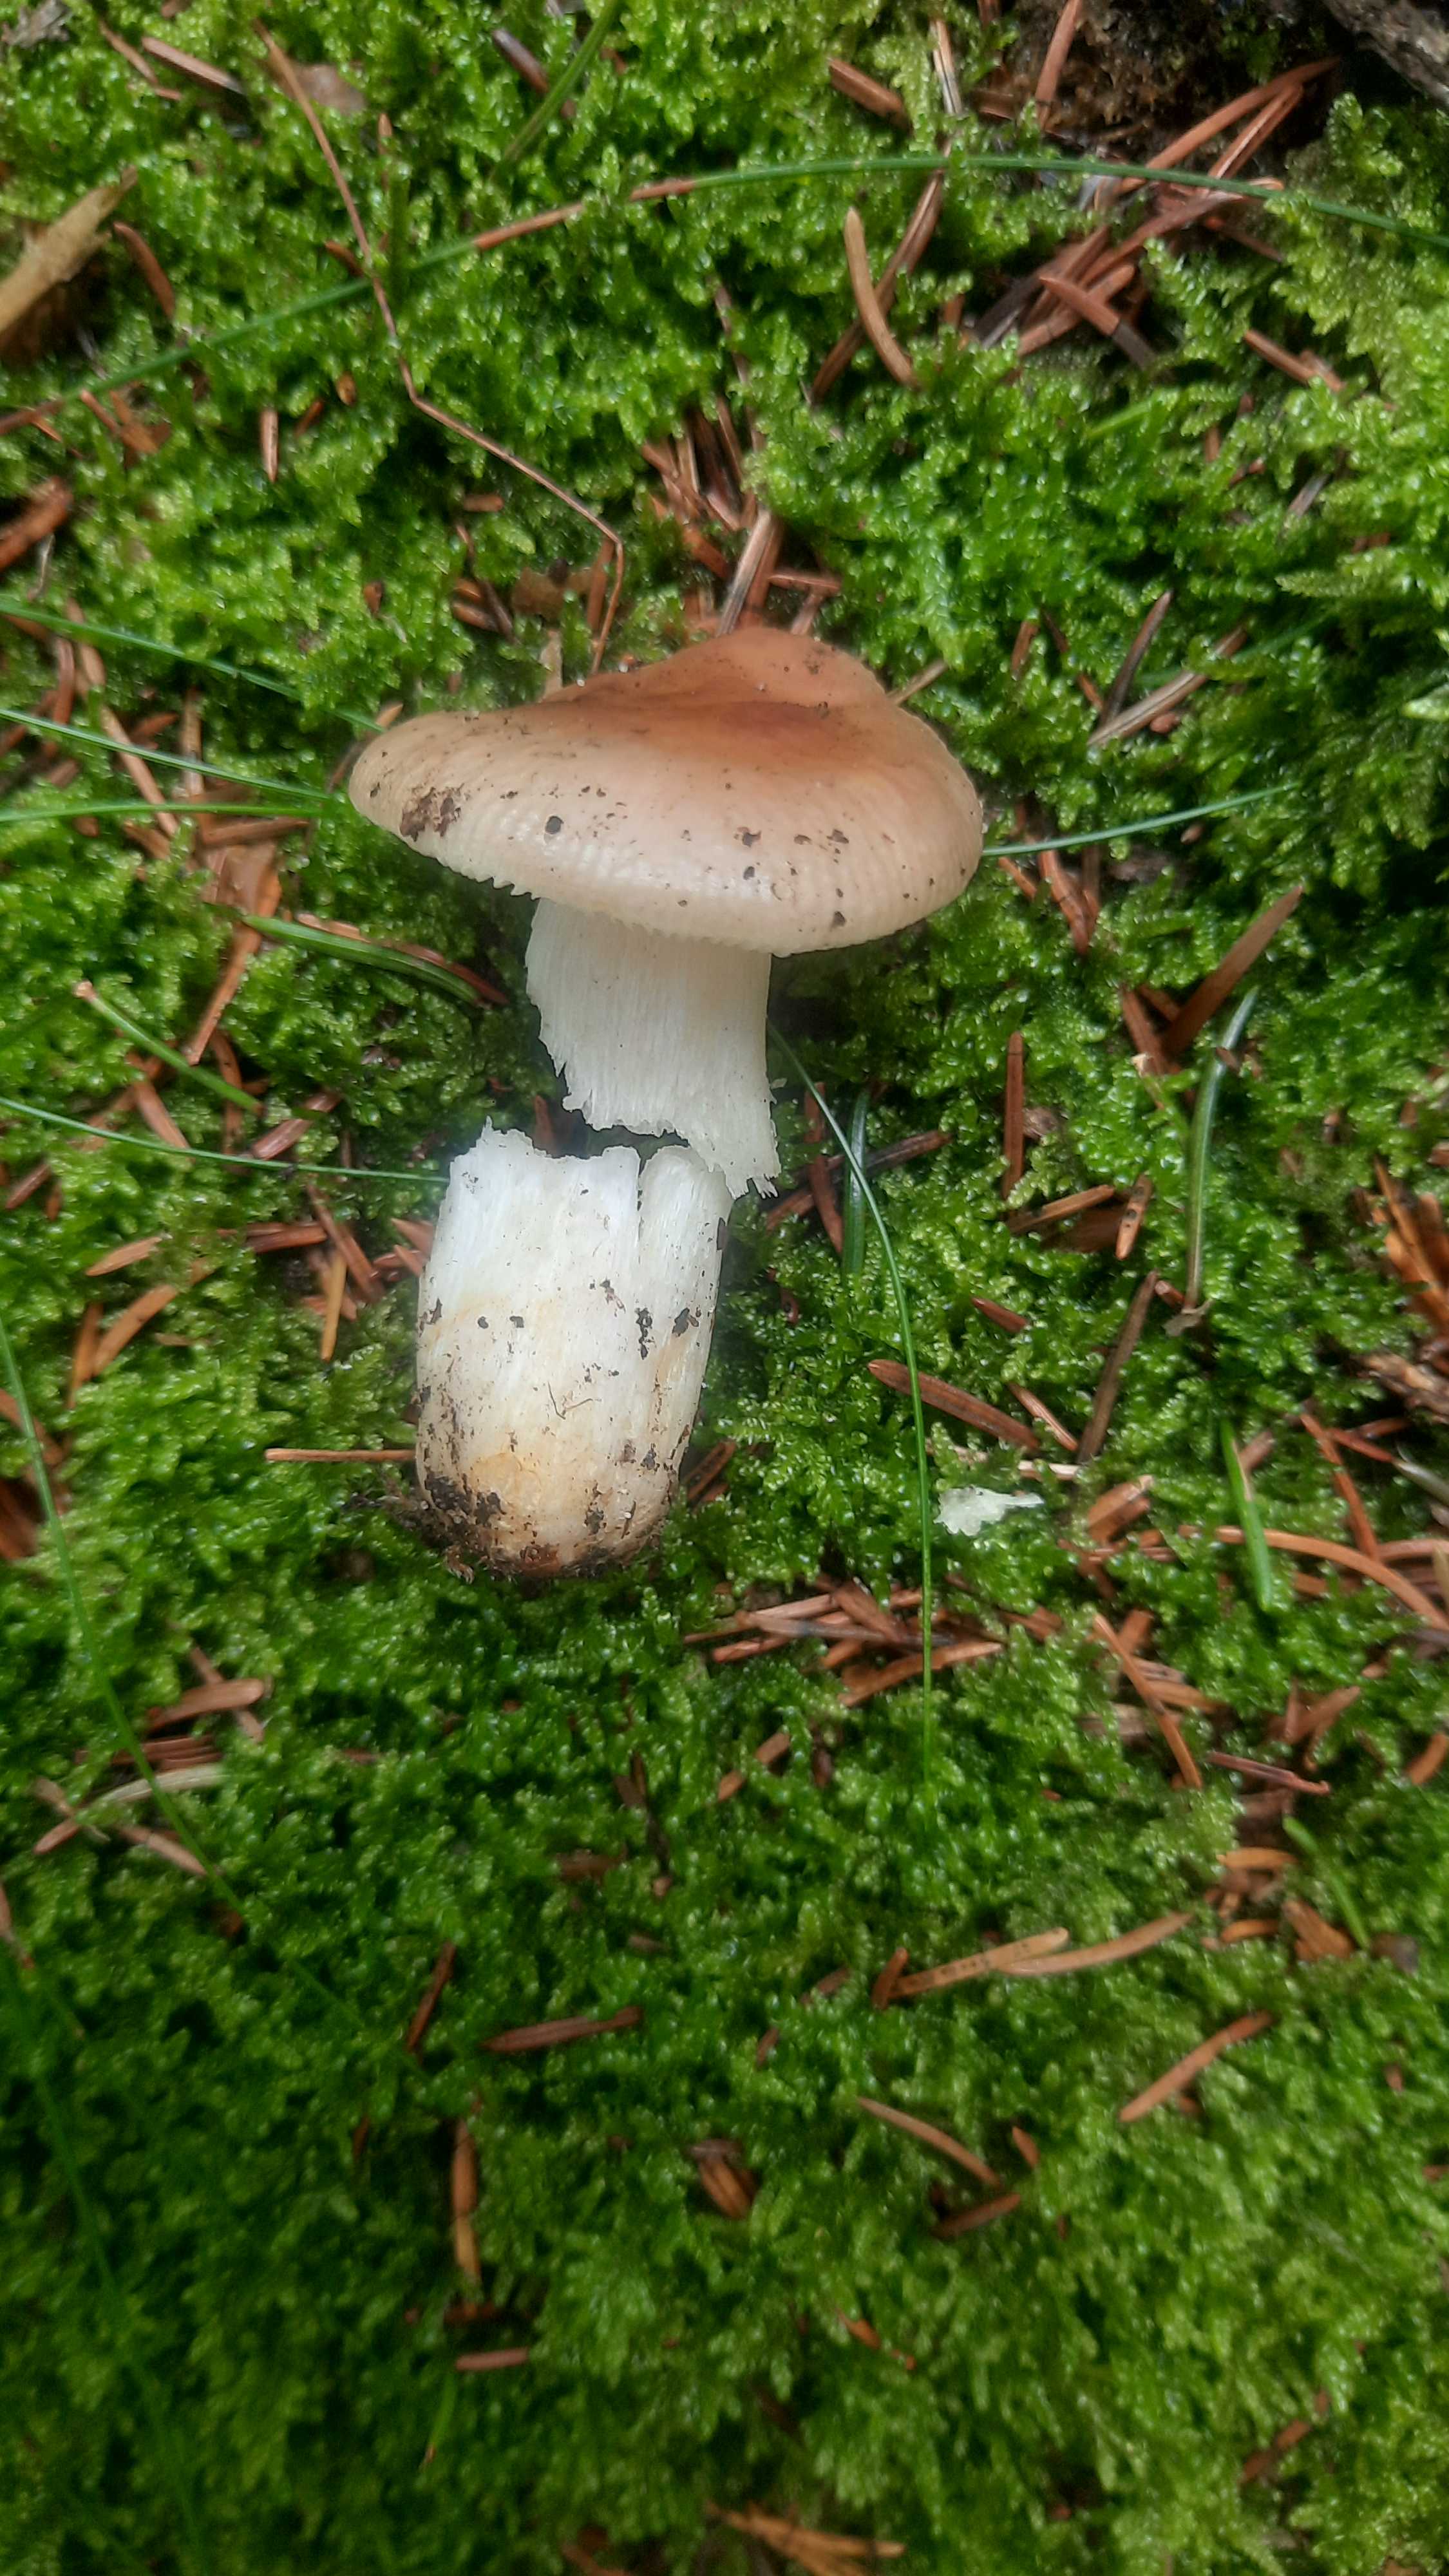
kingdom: Fungi
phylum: Basidiomycota
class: Agaricomycetes
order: Russulales
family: Russulaceae
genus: Russula
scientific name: Russula
